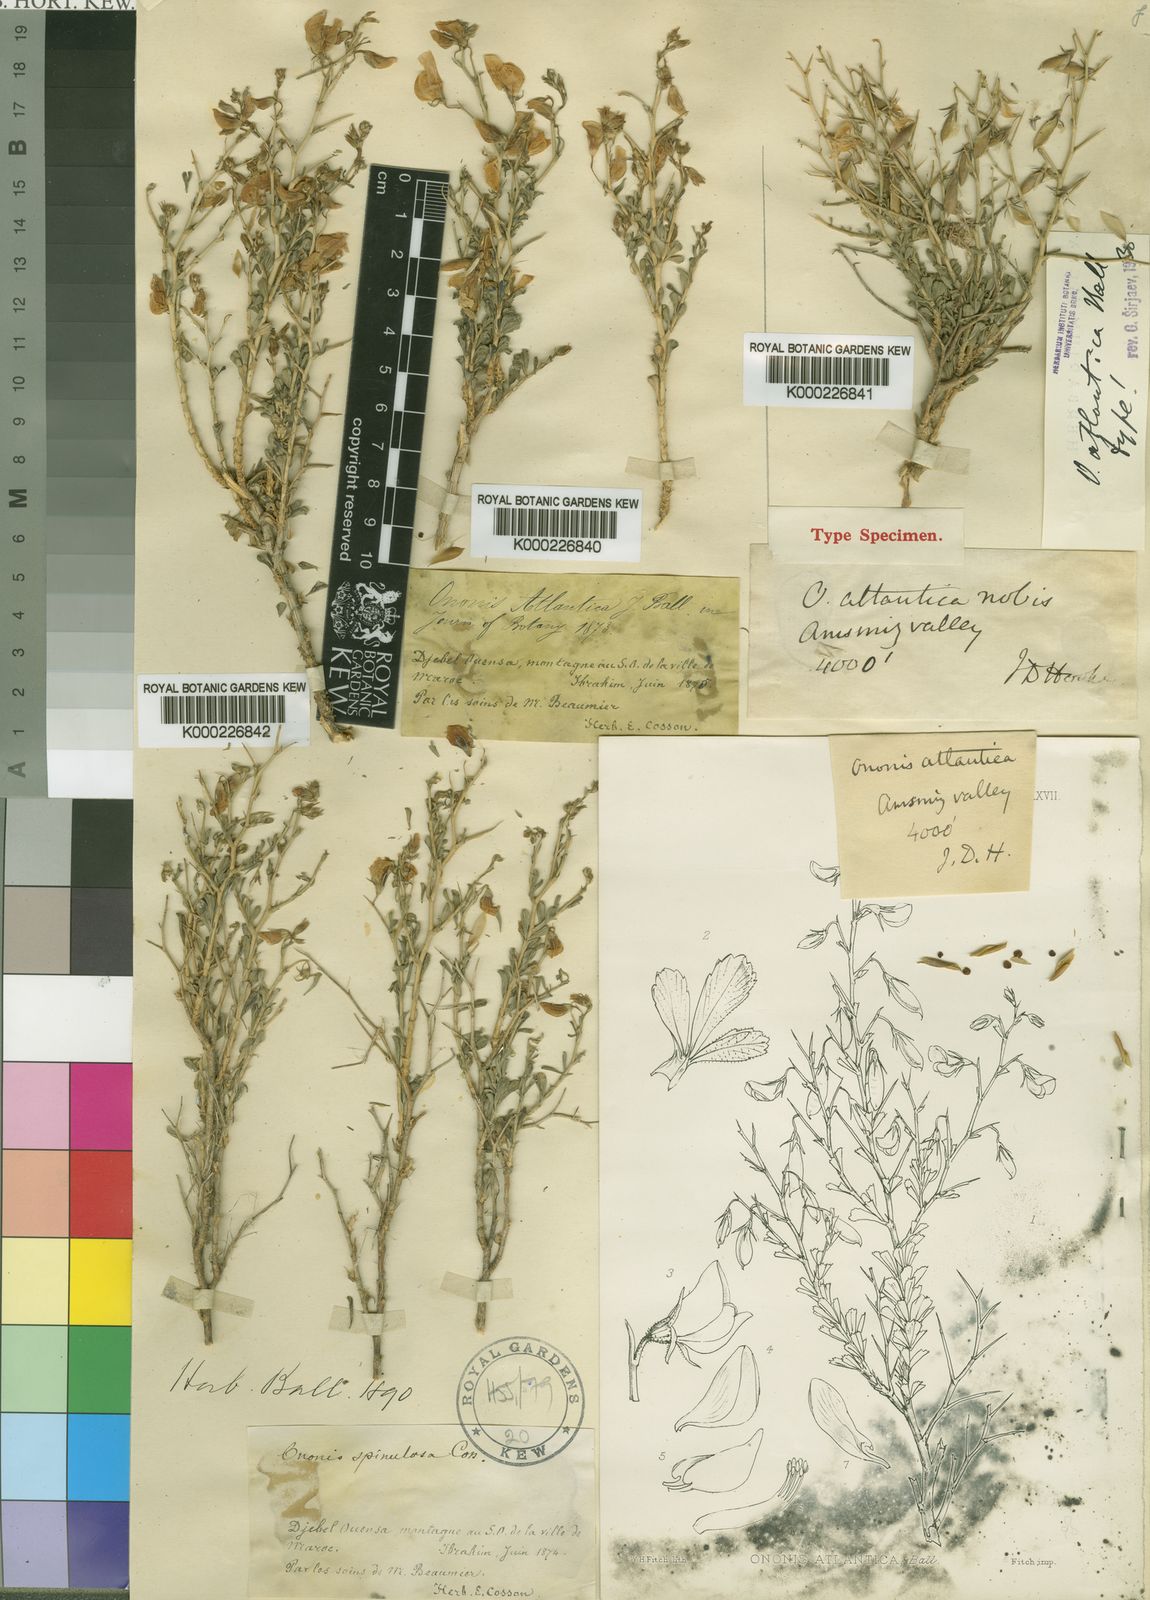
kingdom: Plantae
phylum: Tracheophyta
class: Magnoliopsida
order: Fabales
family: Fabaceae
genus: Ononis
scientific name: Ononis atlantica
